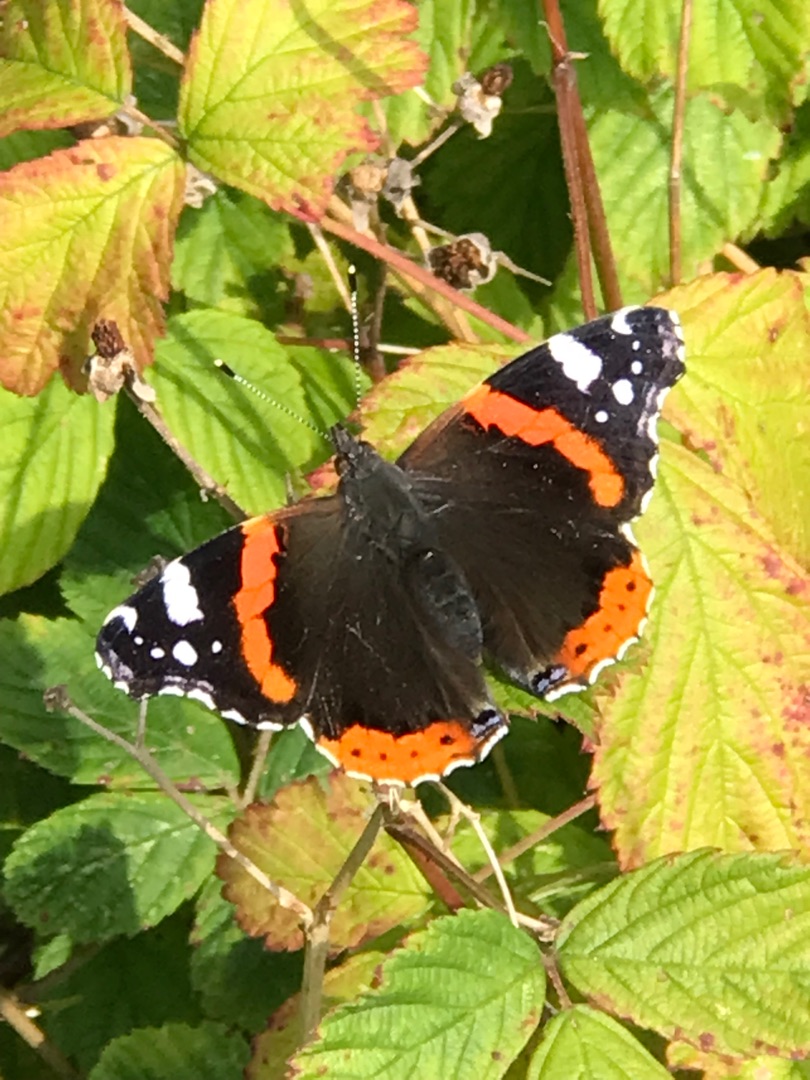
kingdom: Animalia
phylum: Arthropoda
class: Insecta
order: Lepidoptera
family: Nymphalidae
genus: Vanessa
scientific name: Vanessa atalanta
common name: Admiral
